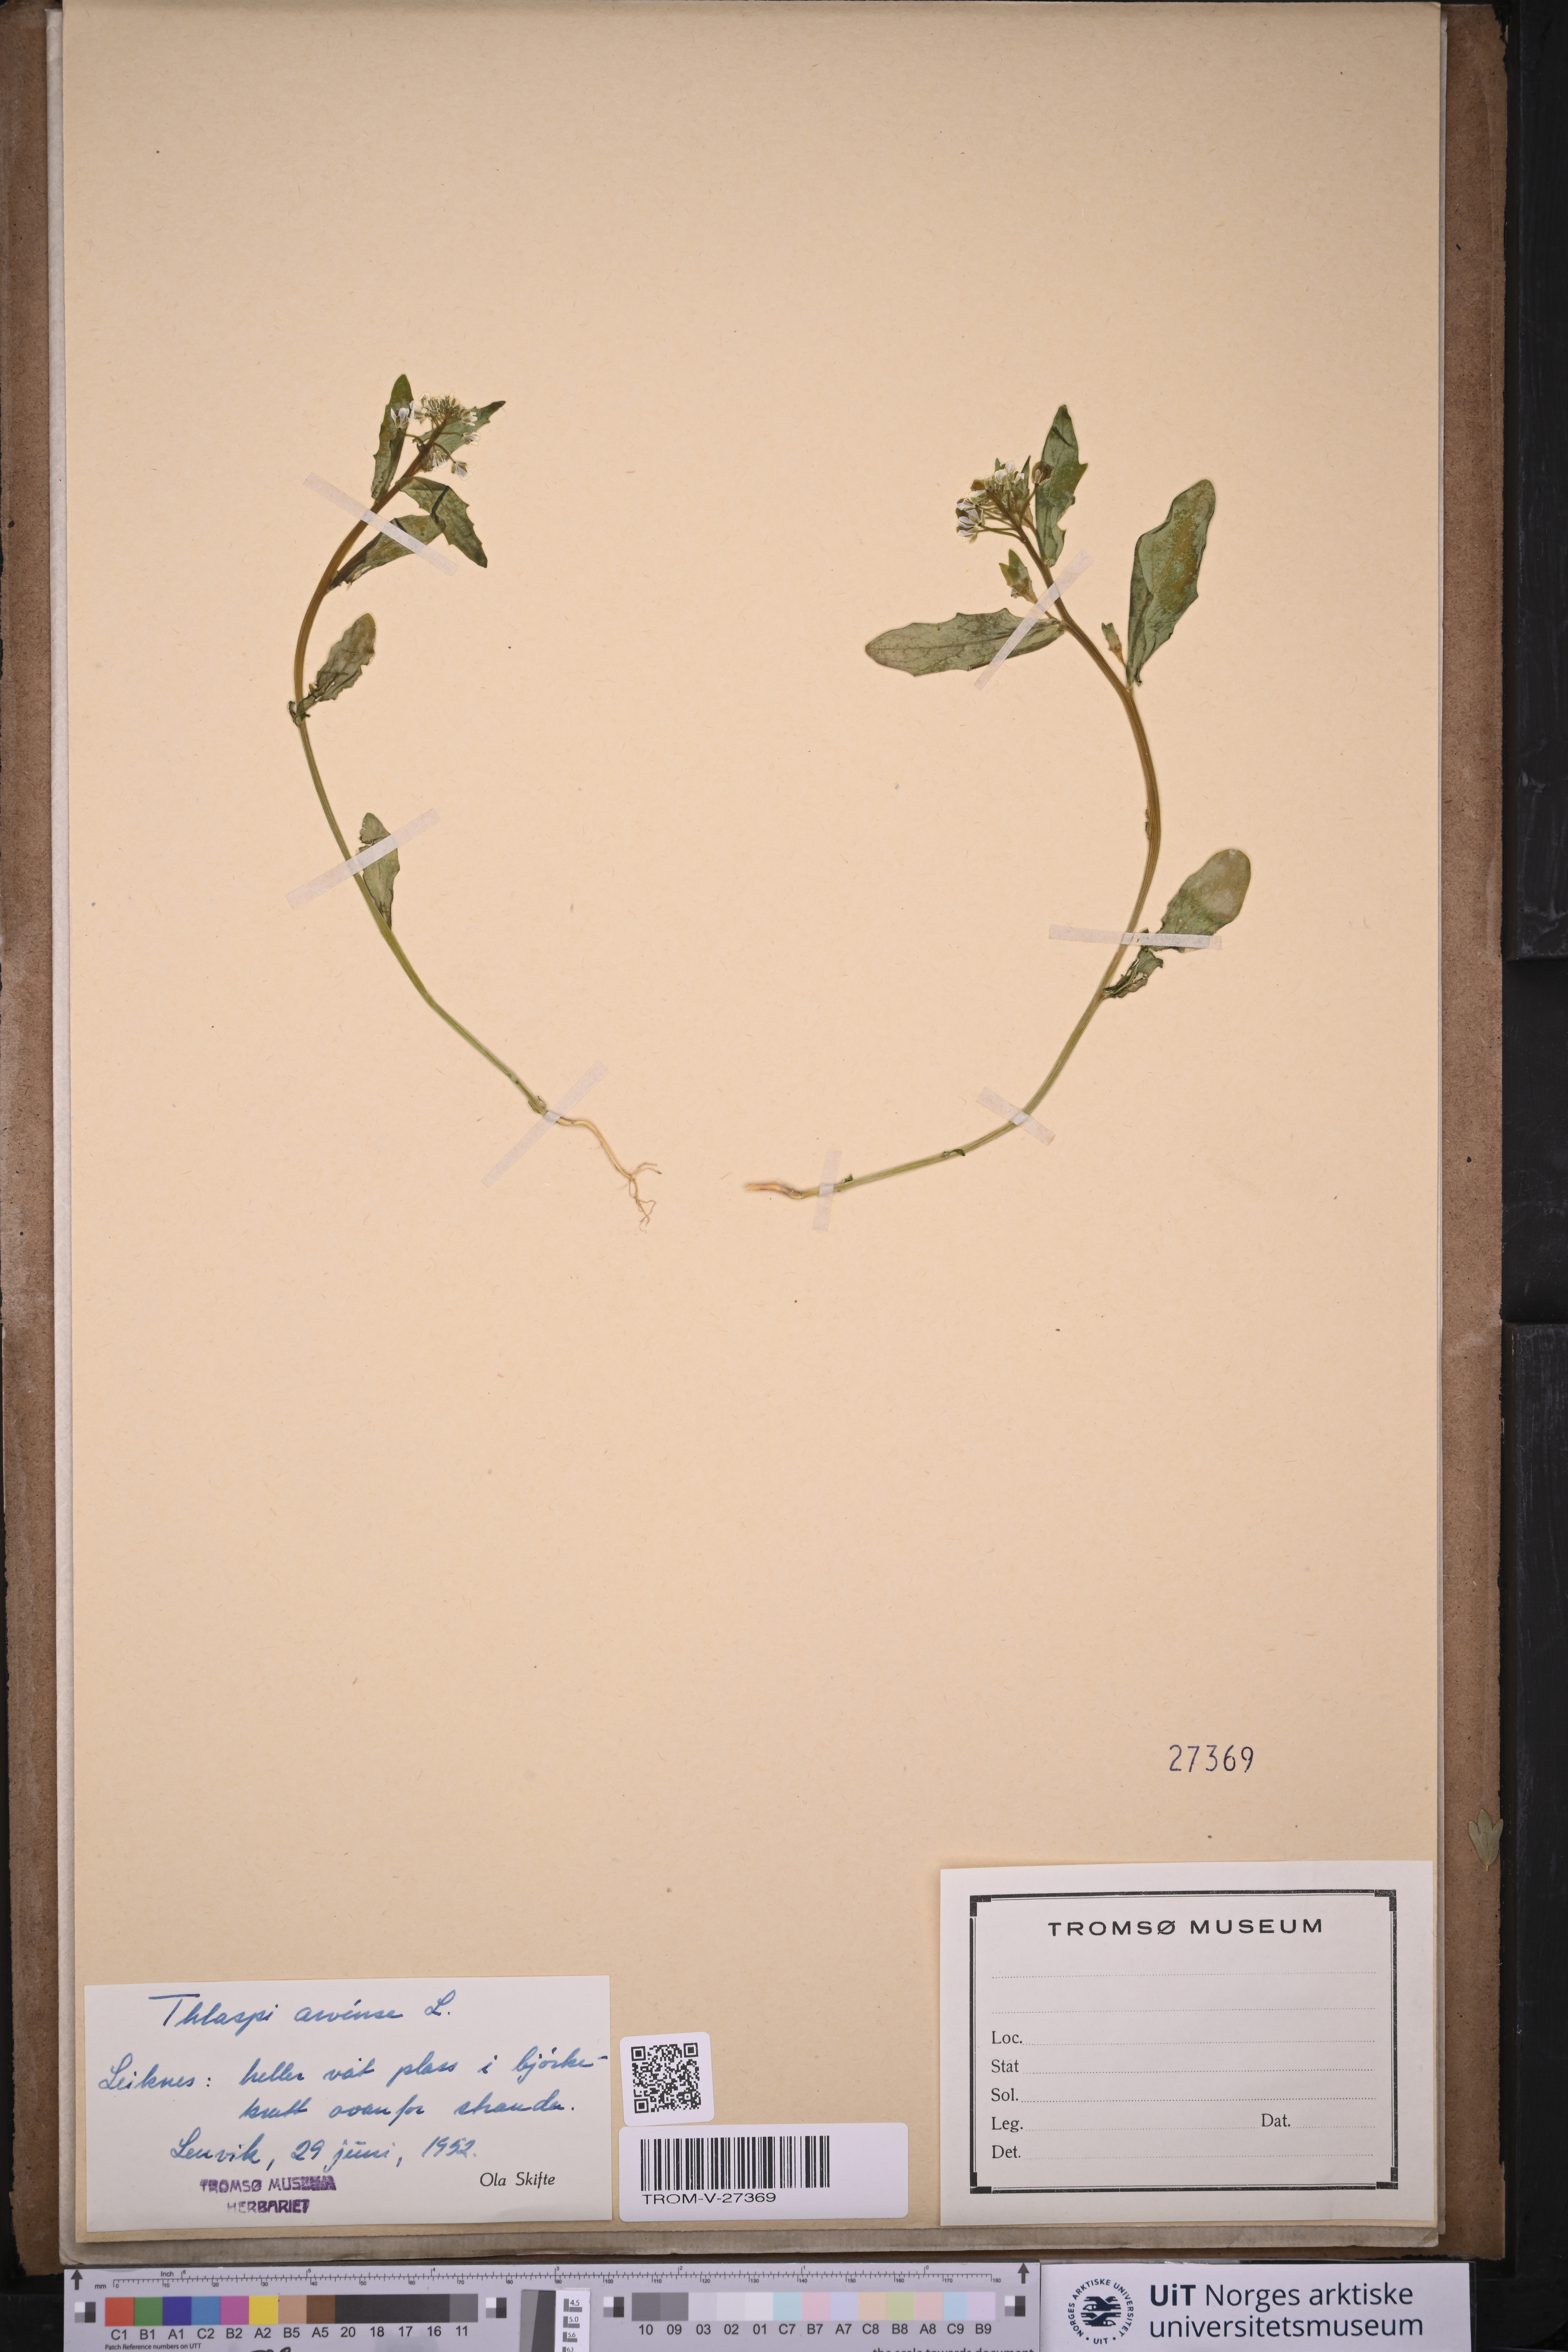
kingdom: Plantae
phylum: Tracheophyta
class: Magnoliopsida
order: Brassicales
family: Brassicaceae
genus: Thlaspi
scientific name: Thlaspi arvense
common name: Field pennycress
